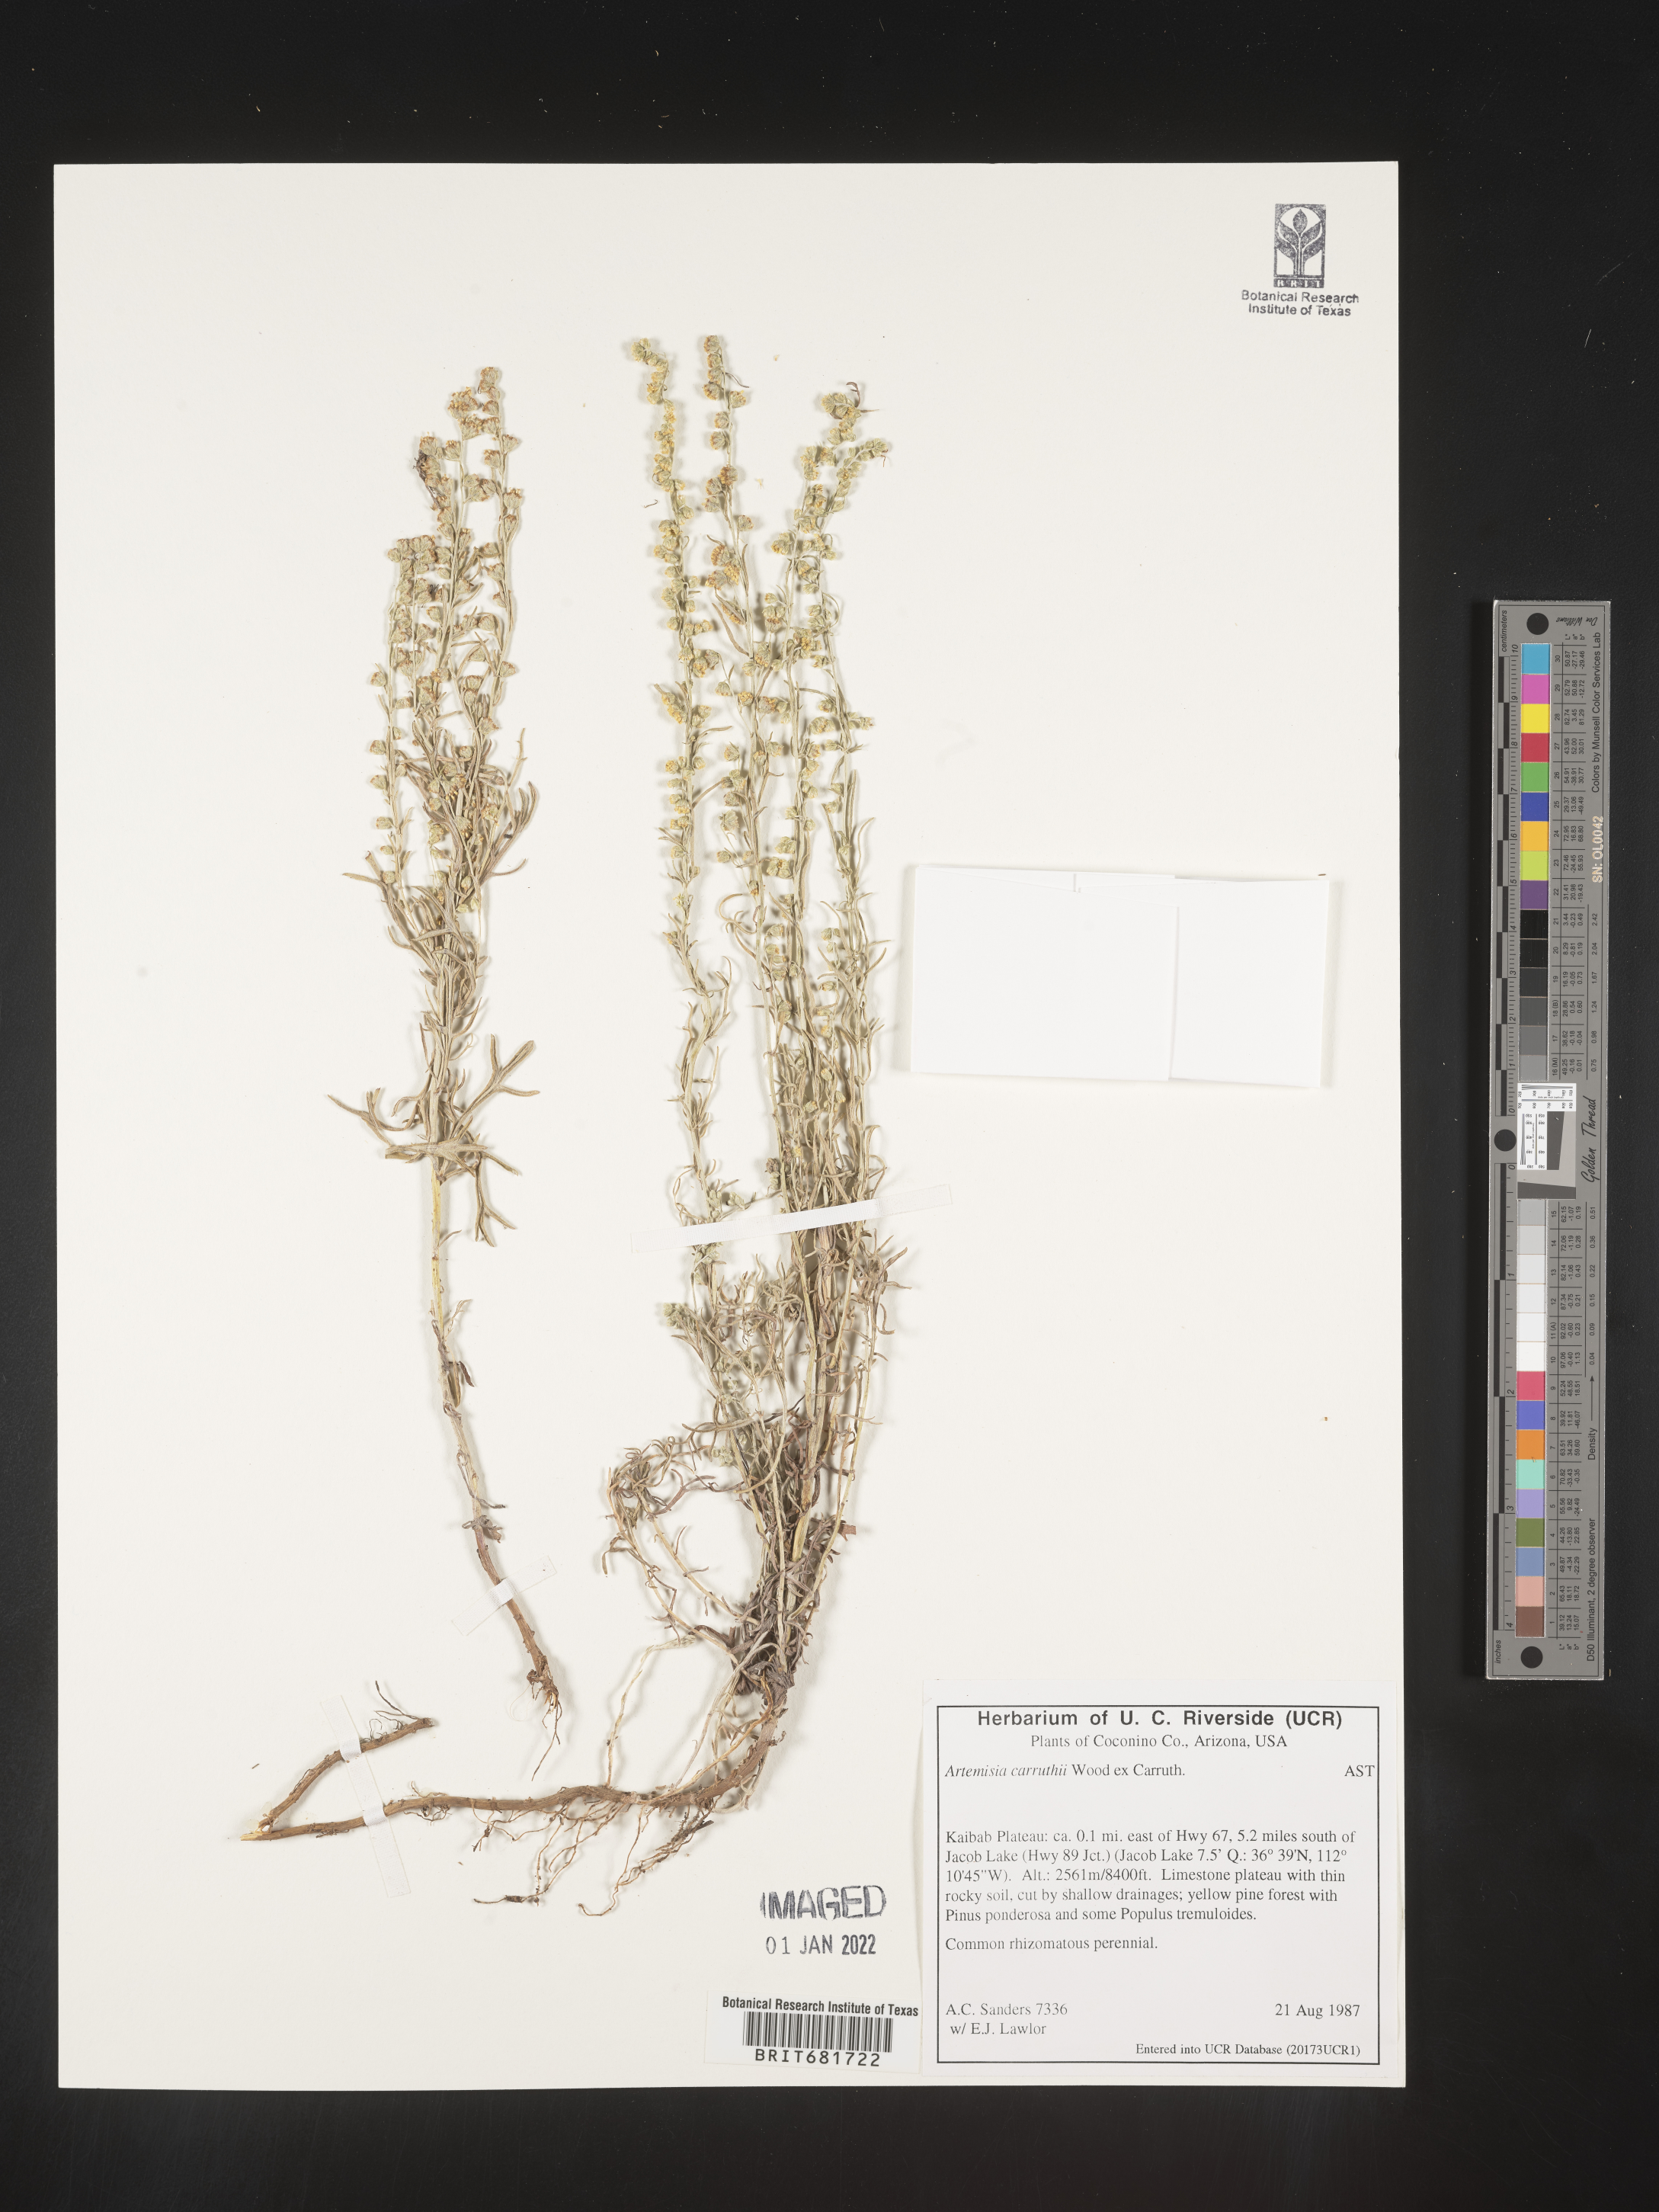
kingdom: Plantae
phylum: Tracheophyta
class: Magnoliopsida
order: Asterales
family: Asteraceae
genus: Artemisia
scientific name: Artemisia carruthii
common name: Carruth wormwood
